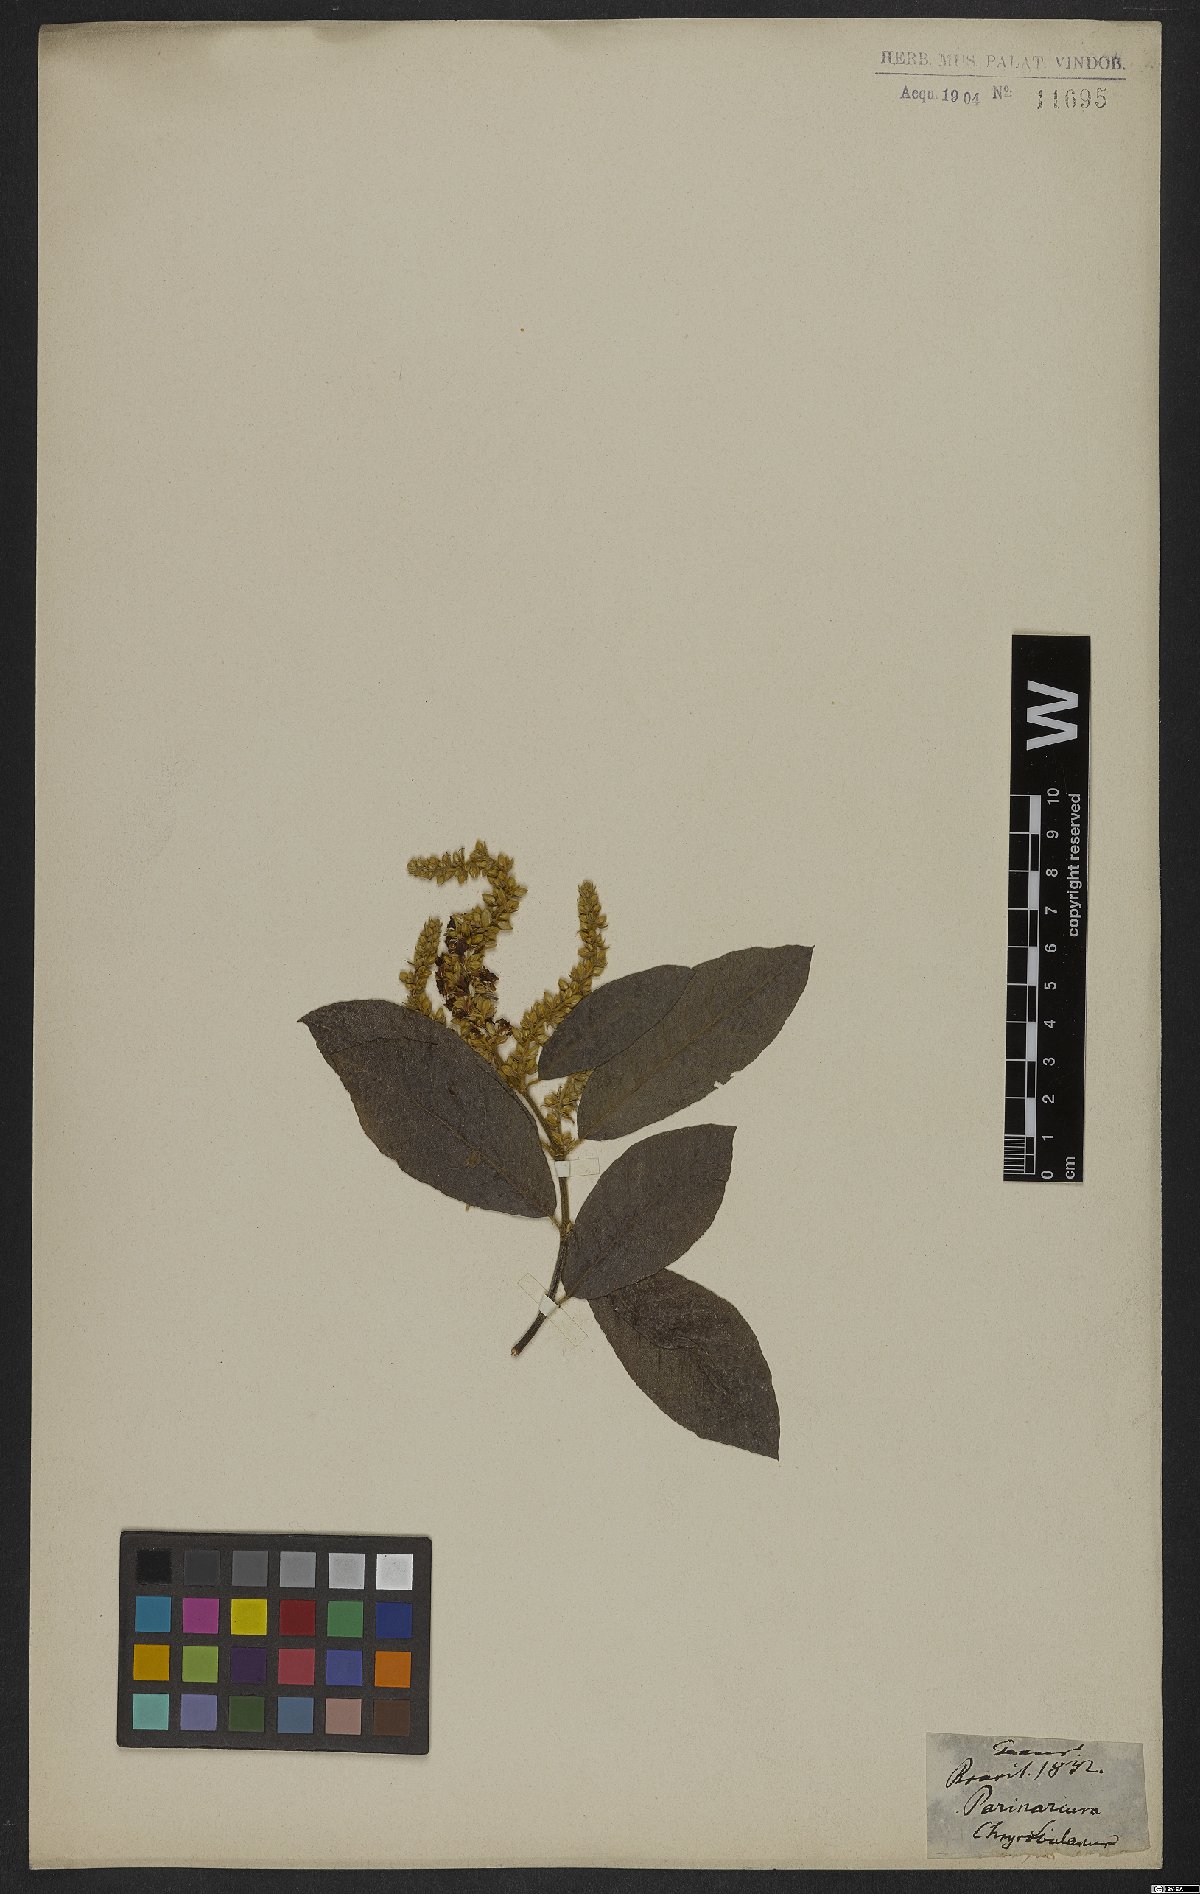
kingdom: Plantae
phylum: Tracheophyta
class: Magnoliopsida
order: Malpighiales
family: Chrysobalanaceae
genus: Parinari
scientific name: Parinari
